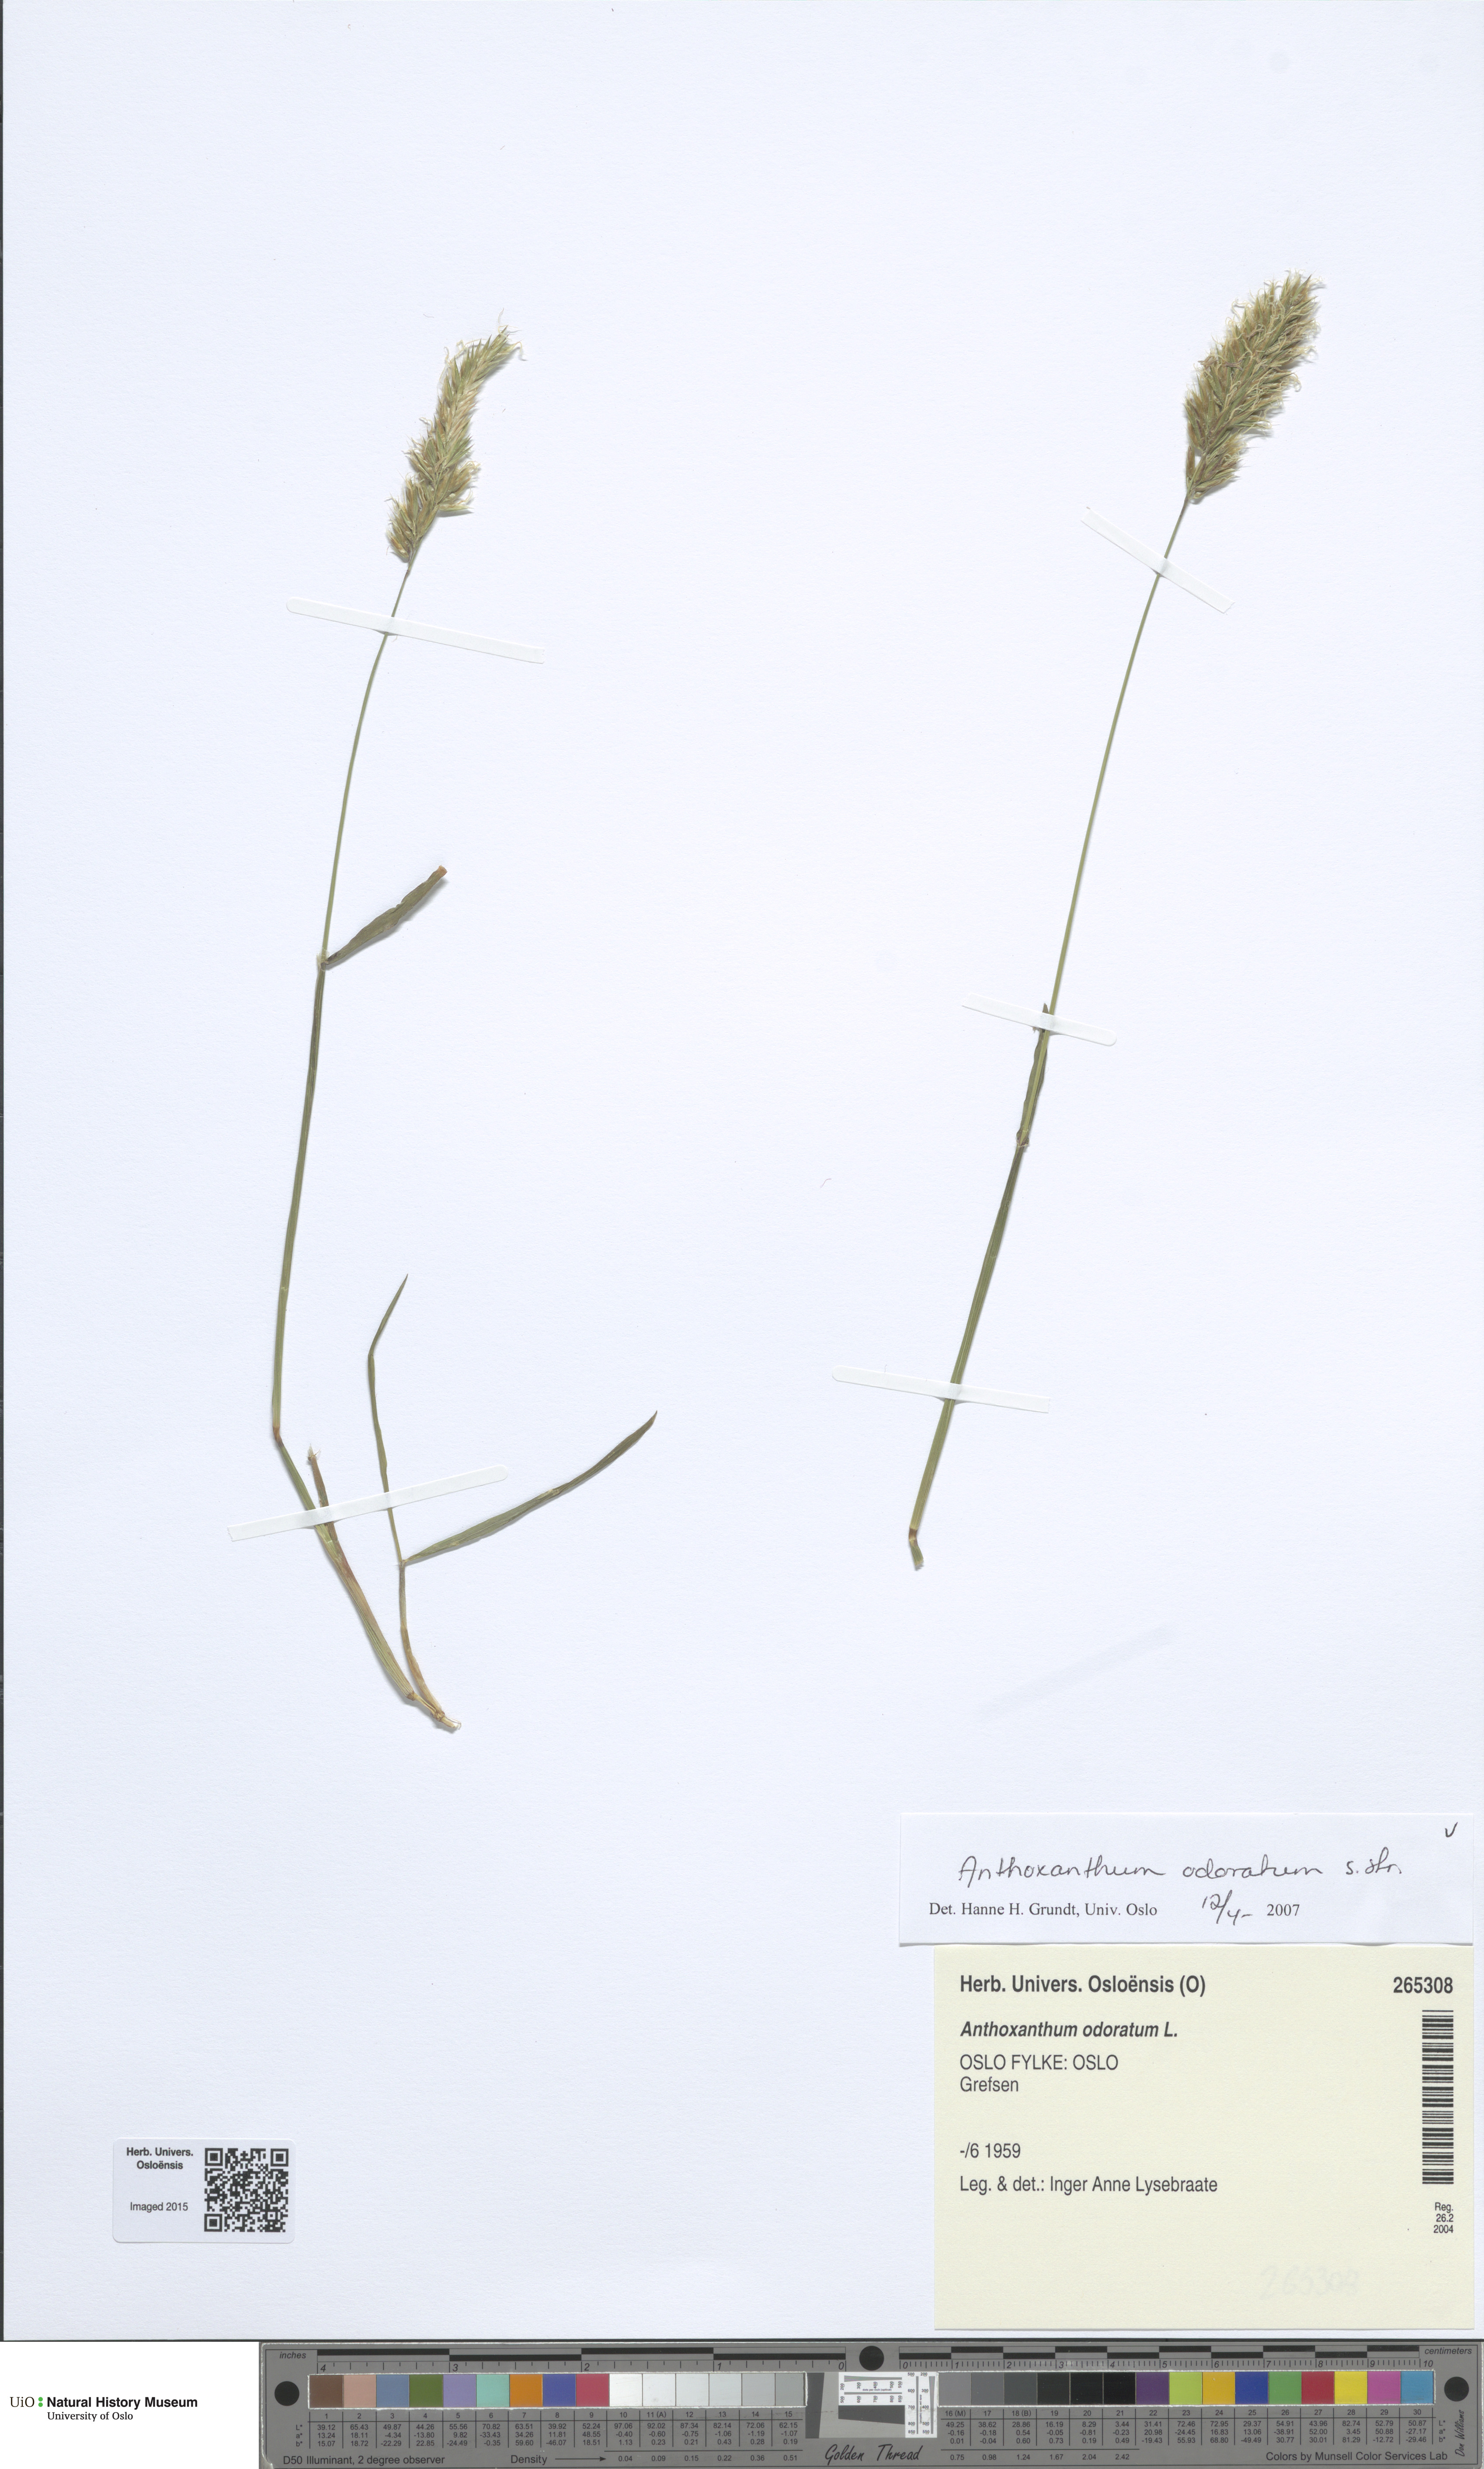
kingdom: Plantae
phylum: Tracheophyta
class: Liliopsida
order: Poales
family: Poaceae
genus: Anthoxanthum
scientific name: Anthoxanthum odoratum
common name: Sweet vernalgrass
